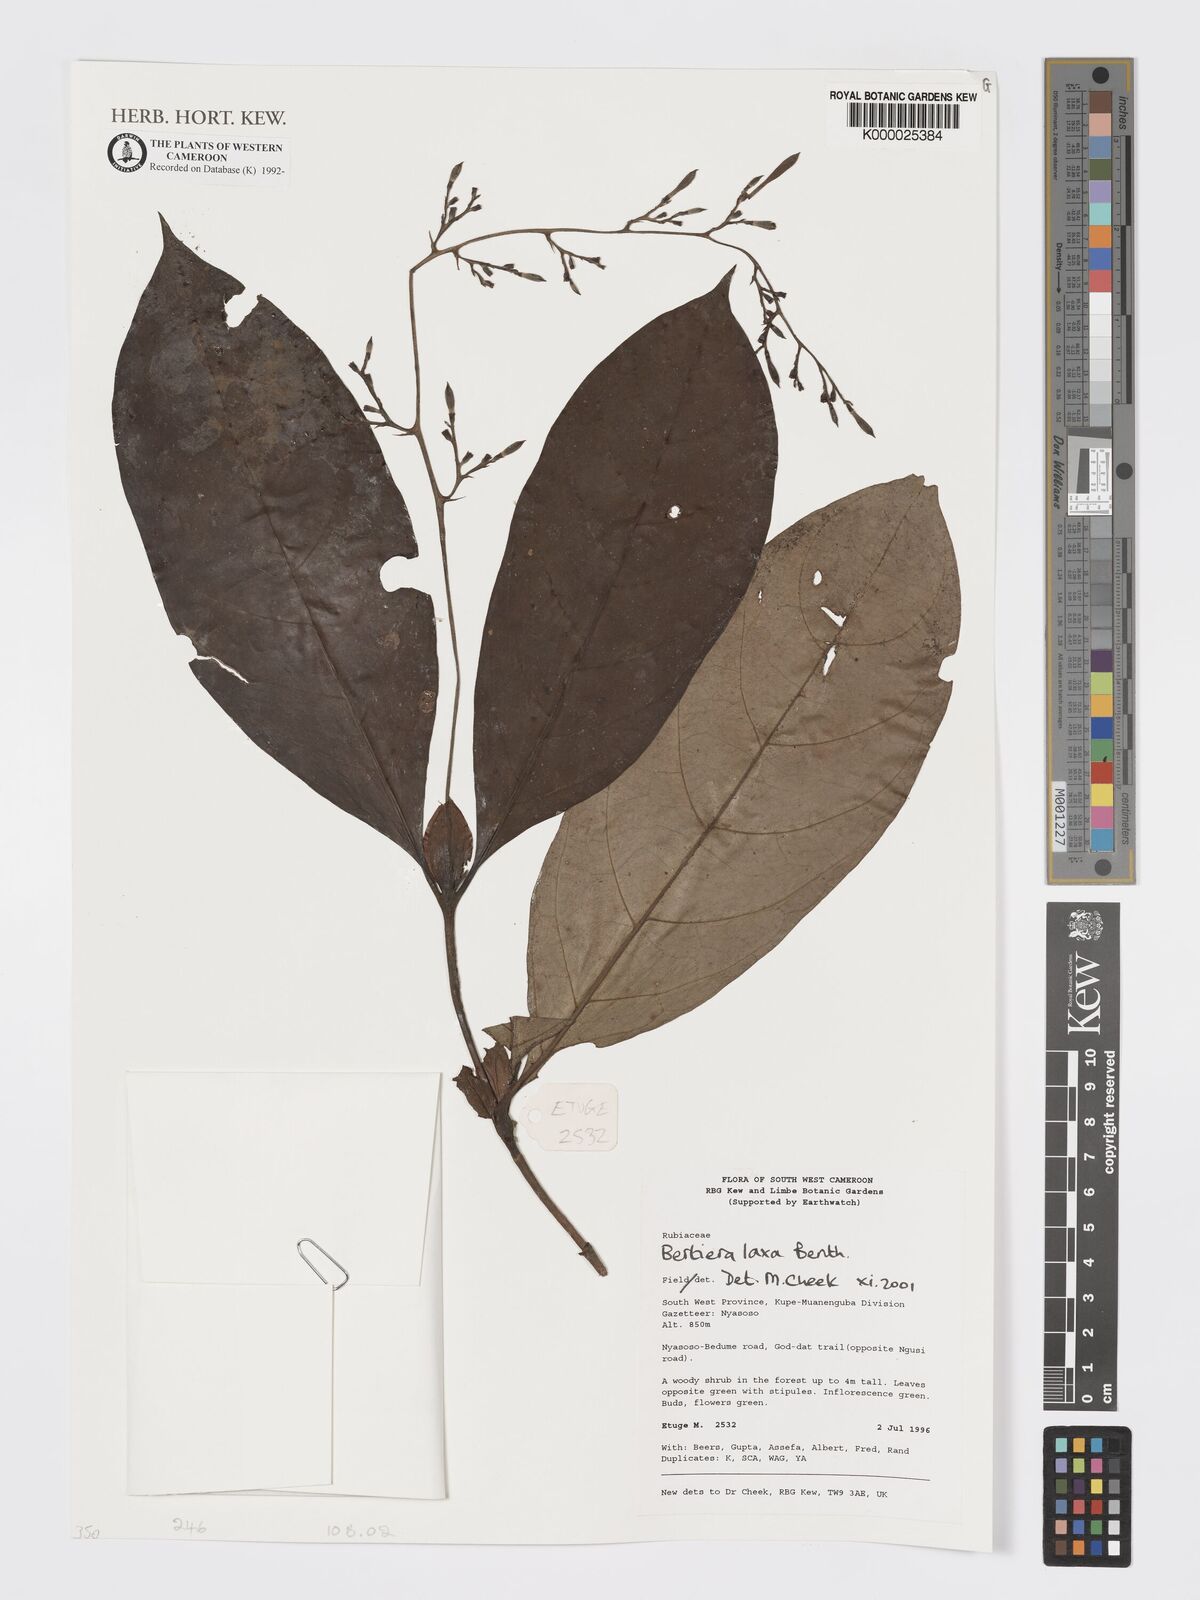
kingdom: Plantae
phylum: Tracheophyta
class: Magnoliopsida
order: Gentianales
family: Rubiaceae
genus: Bertiera
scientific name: Bertiera laxa
